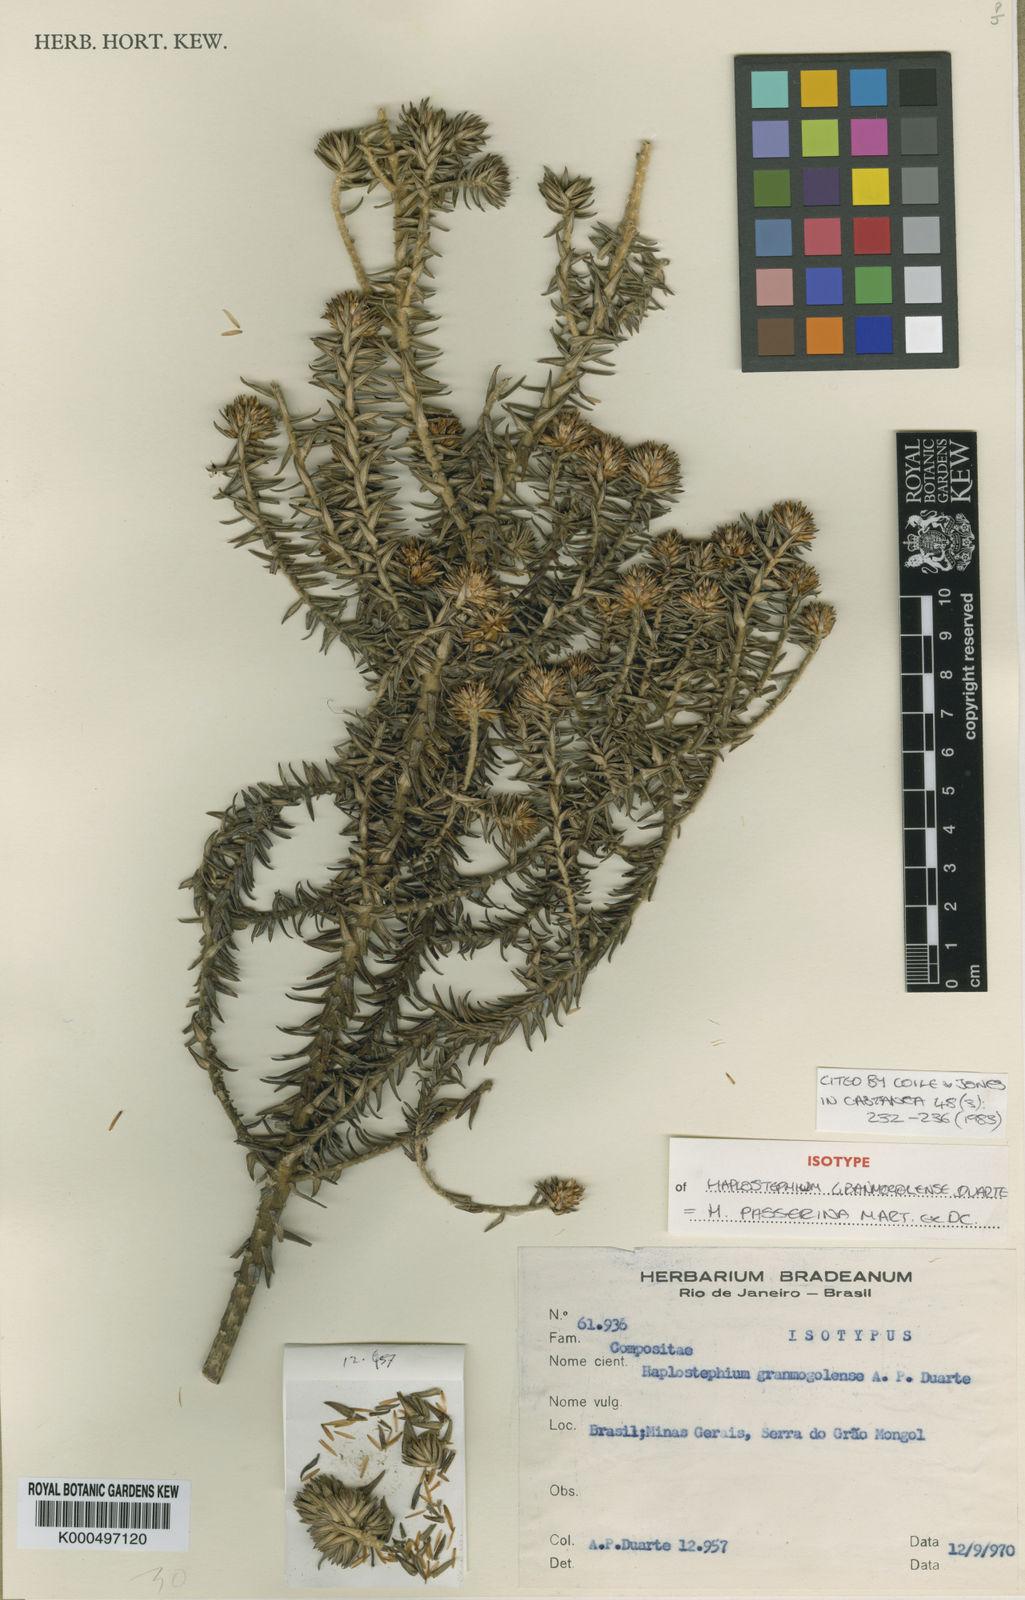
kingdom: Plantae
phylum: Tracheophyta
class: Magnoliopsida
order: Asterales
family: Asteraceae
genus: Lychnophora
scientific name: Lychnophora granmogolensis
